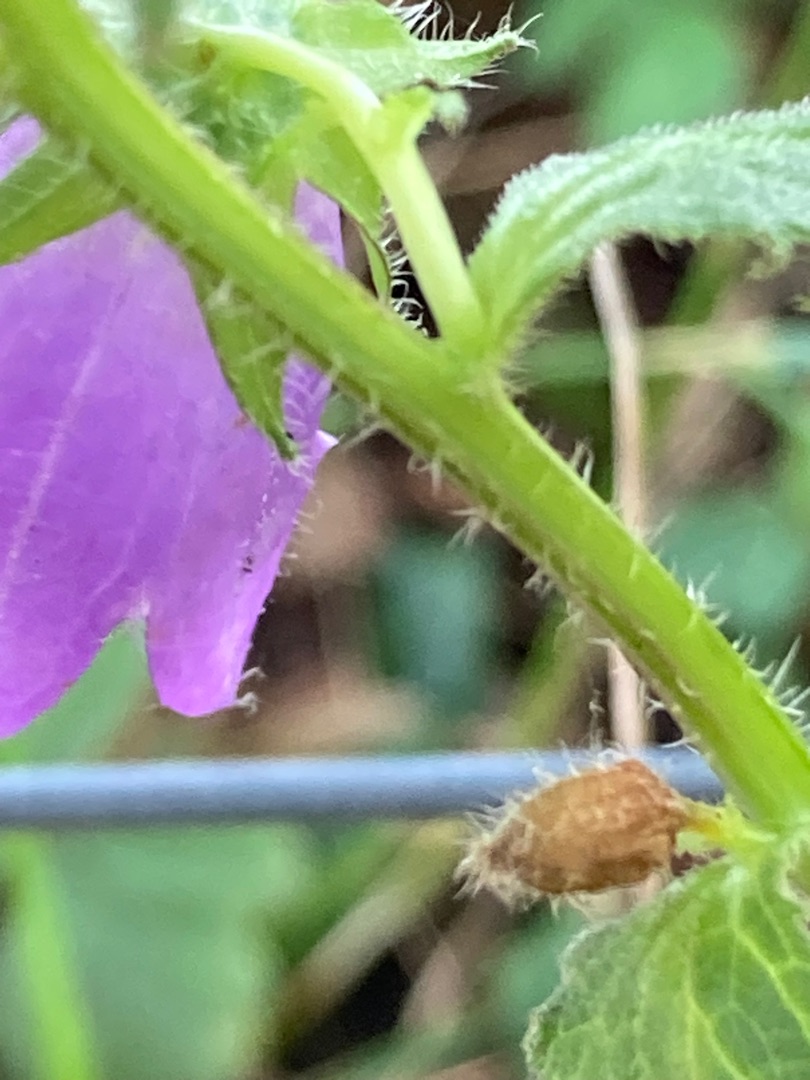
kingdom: Plantae
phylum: Tracheophyta
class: Magnoliopsida
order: Asterales
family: Campanulaceae
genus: Campanula
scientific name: Campanula trachelium
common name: Nælde-klokke
